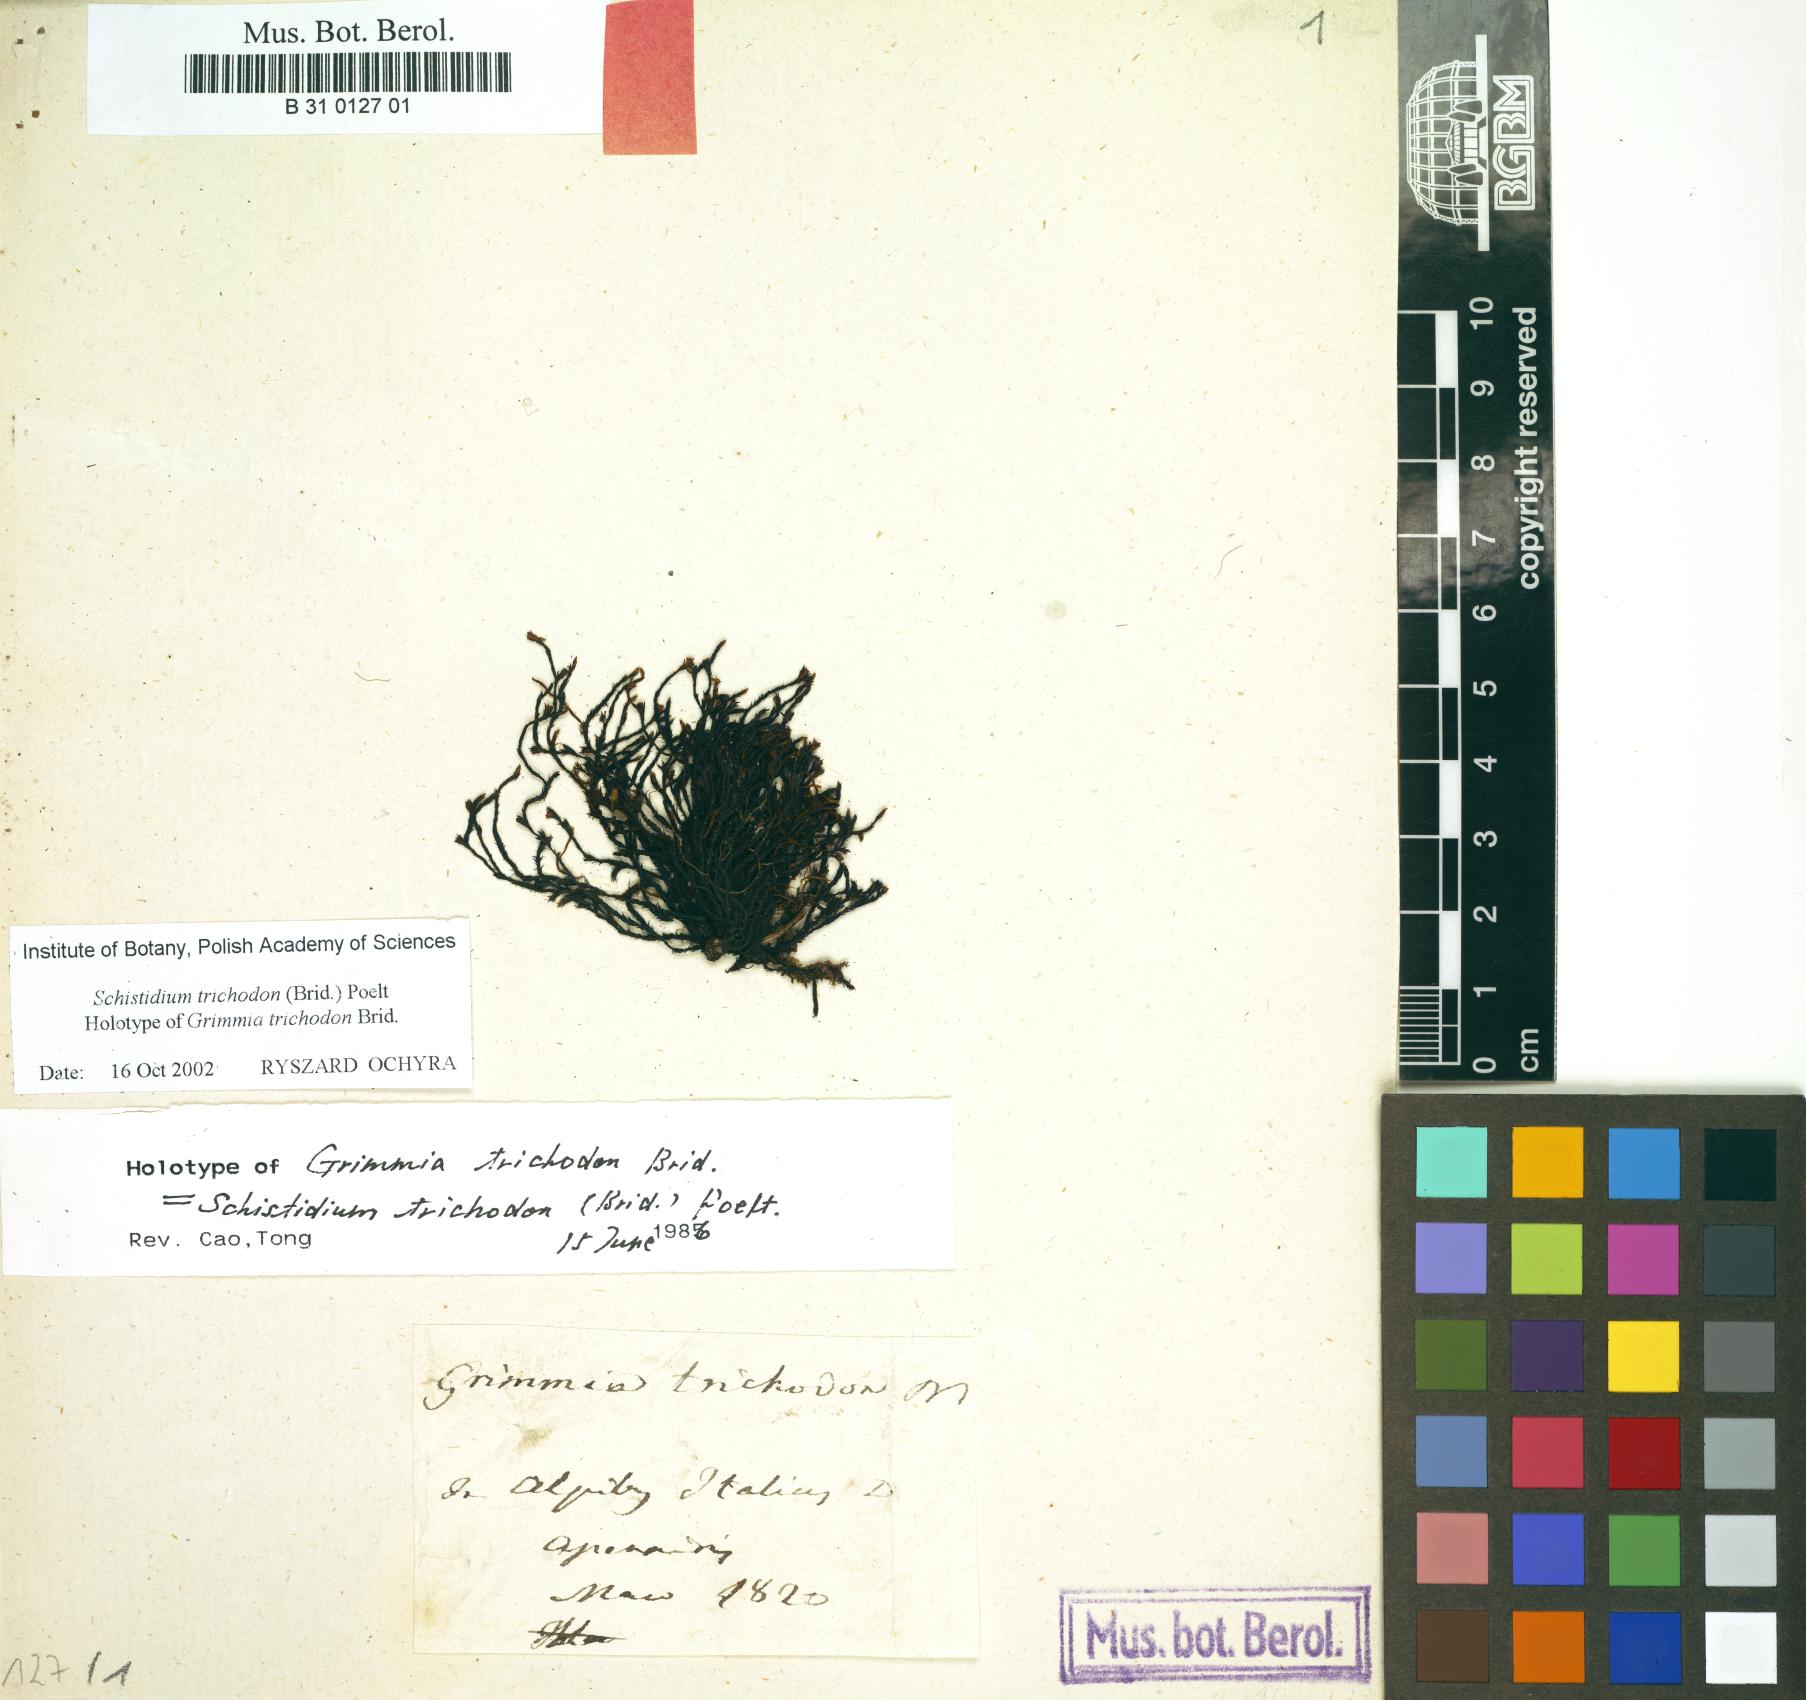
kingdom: Plantae
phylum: Bryophyta
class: Bryopsida
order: Grimmiales
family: Grimmiaceae
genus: Schistidium
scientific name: Schistidium trichodon
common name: Black bloom moss
